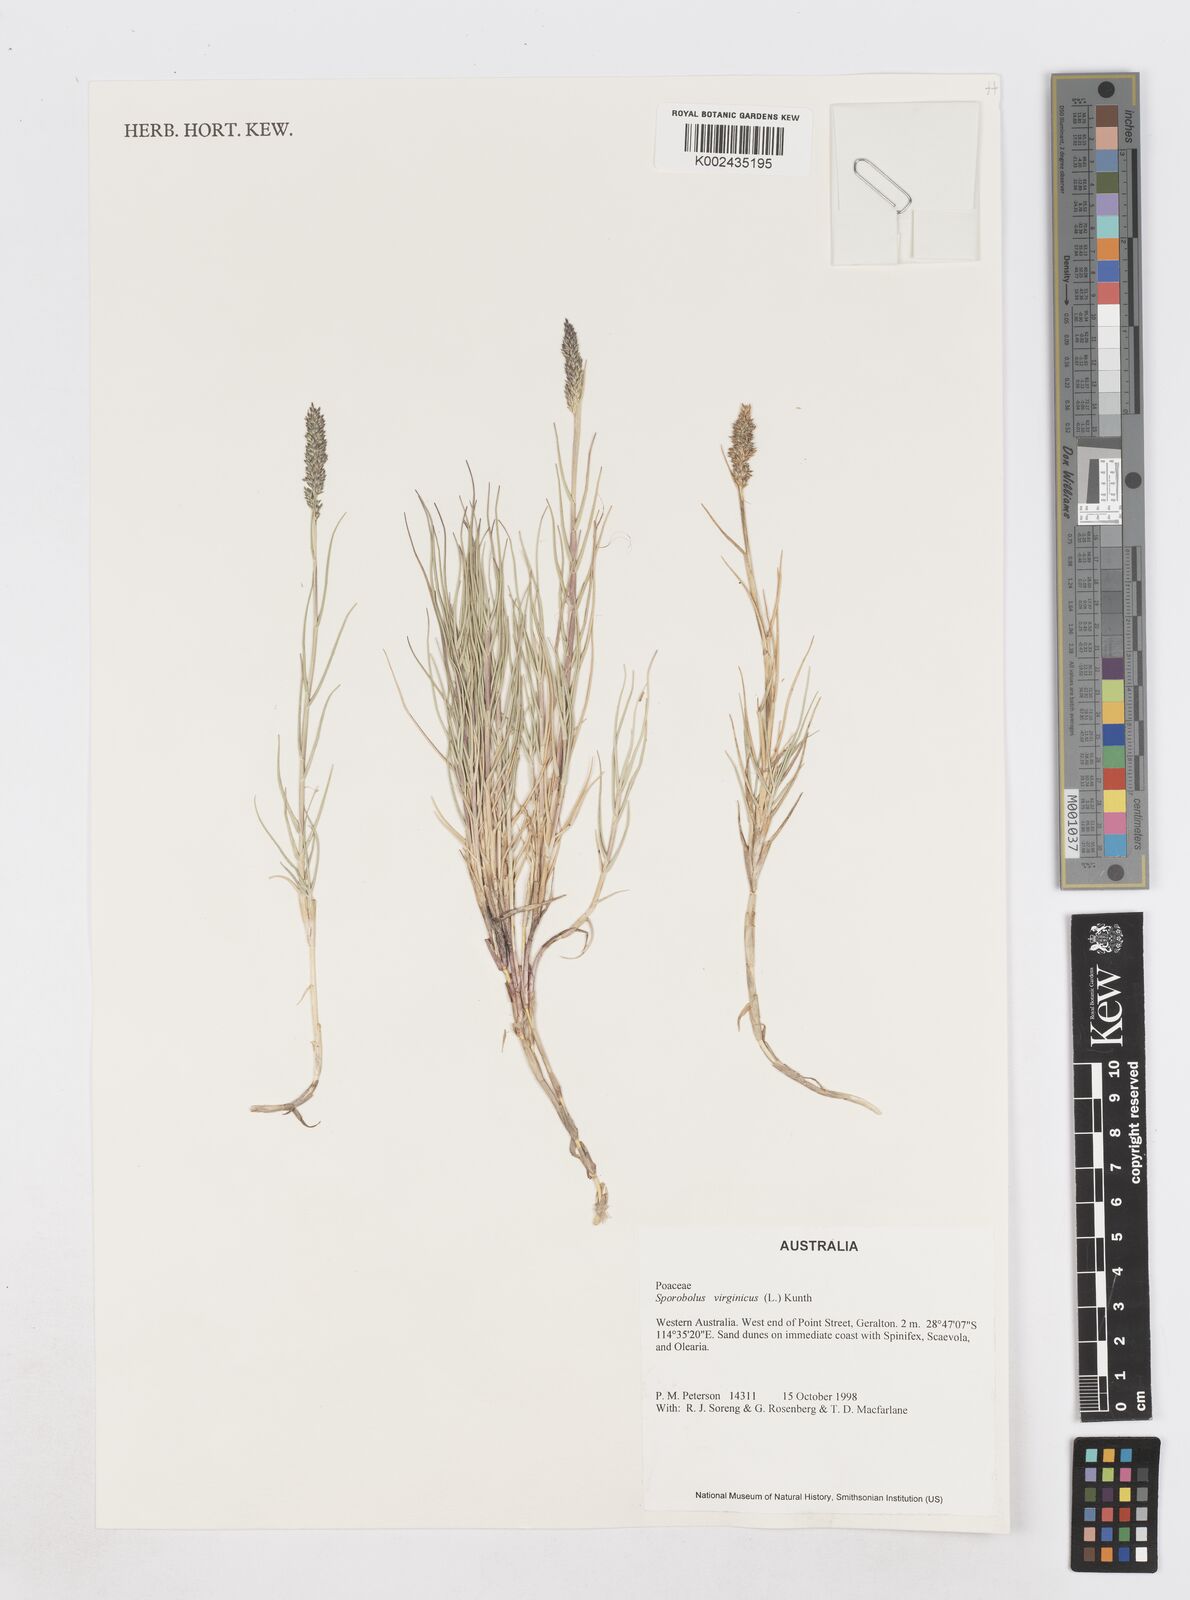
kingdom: Plantae
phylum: Tracheophyta
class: Liliopsida
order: Poales
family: Poaceae
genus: Sporobolus
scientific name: Sporobolus virginicus
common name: Beach dropseed
